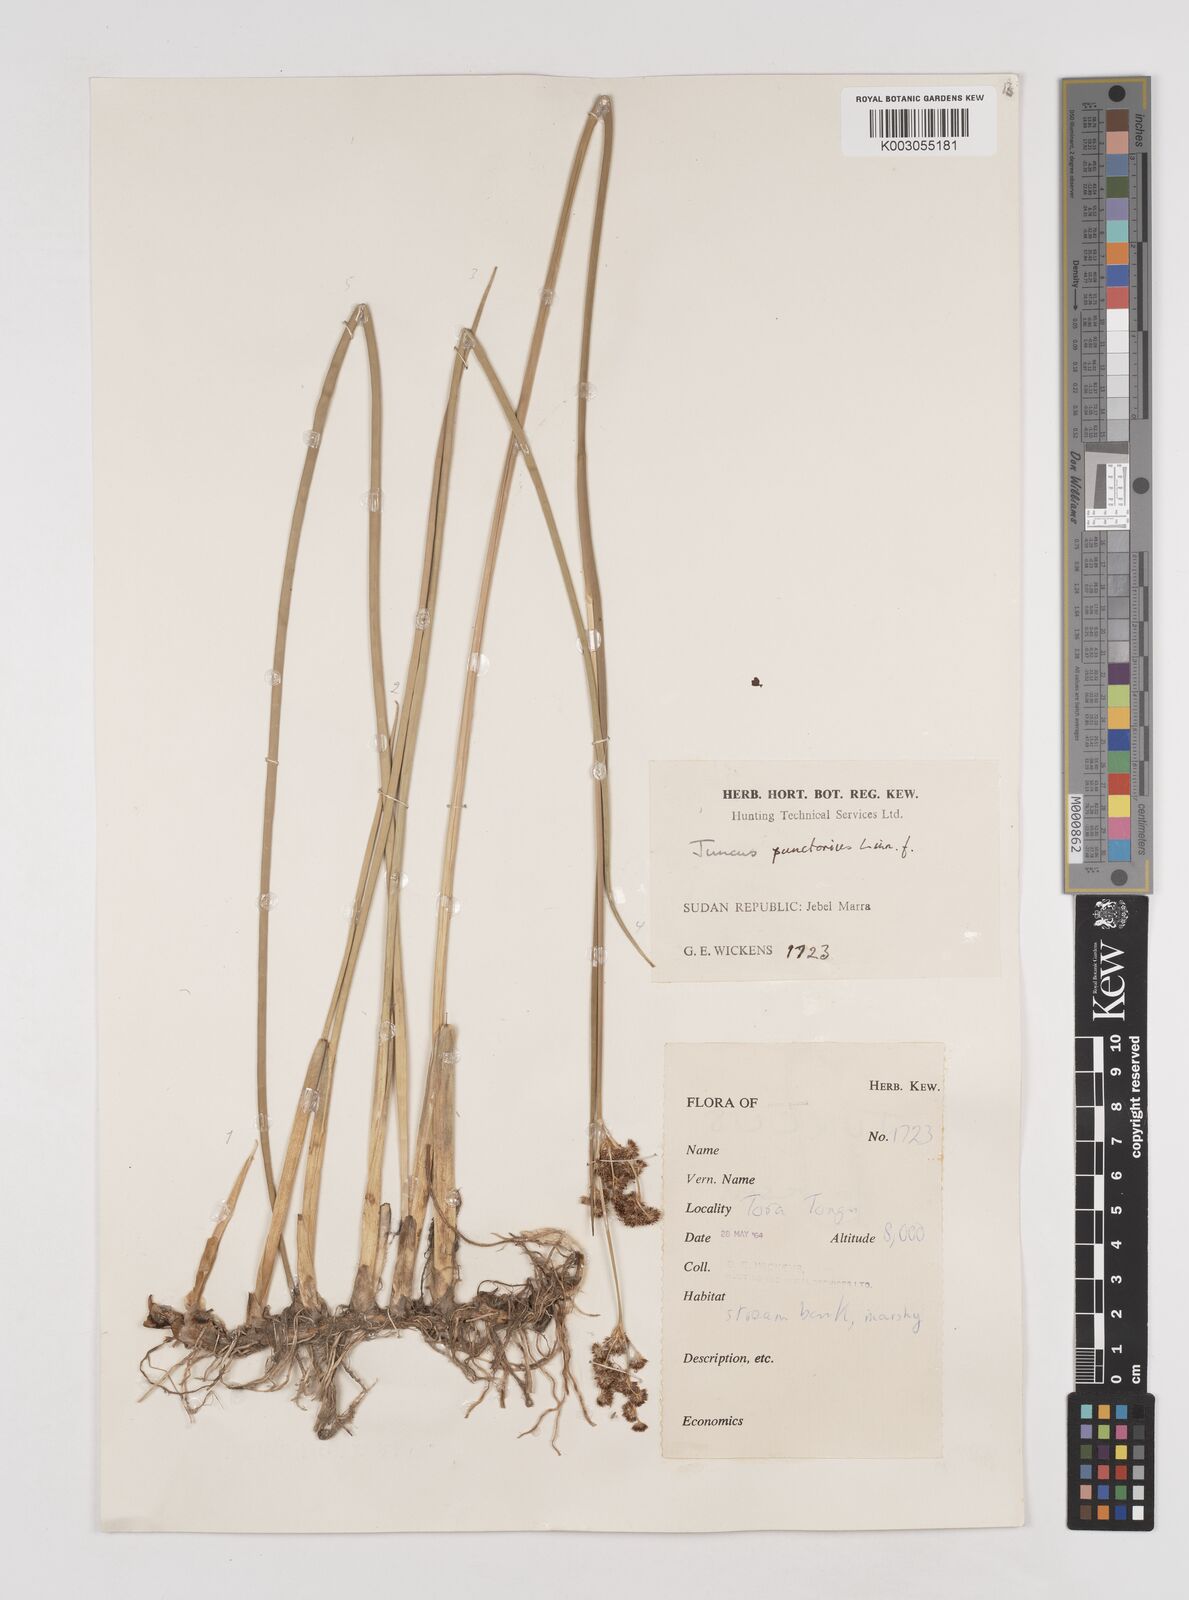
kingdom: Plantae
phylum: Tracheophyta
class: Liliopsida
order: Poales
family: Juncaceae
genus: Juncus
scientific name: Juncus punctorius
